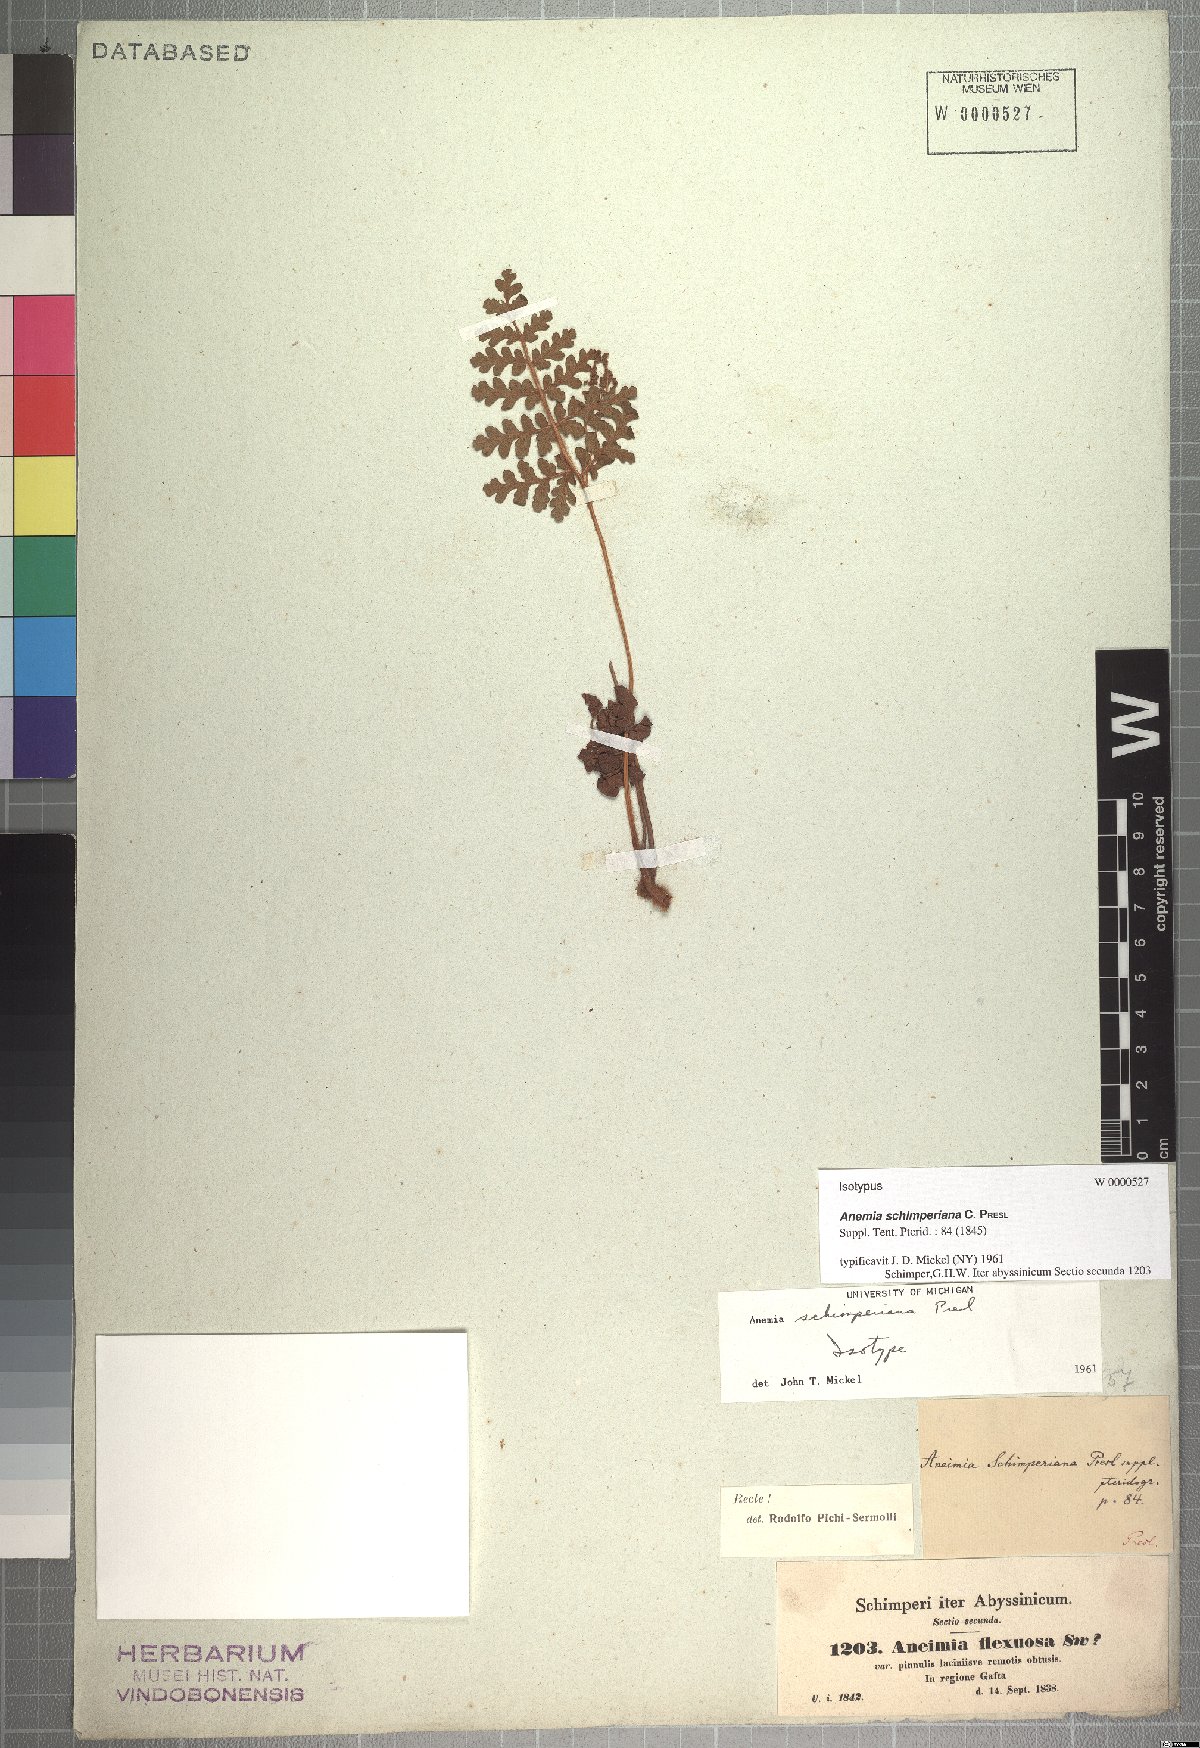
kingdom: Plantae
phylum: Tracheophyta
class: Polypodiopsida
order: Schizaeales
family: Anemiaceae
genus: Anemia
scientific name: Anemia schimperiana
